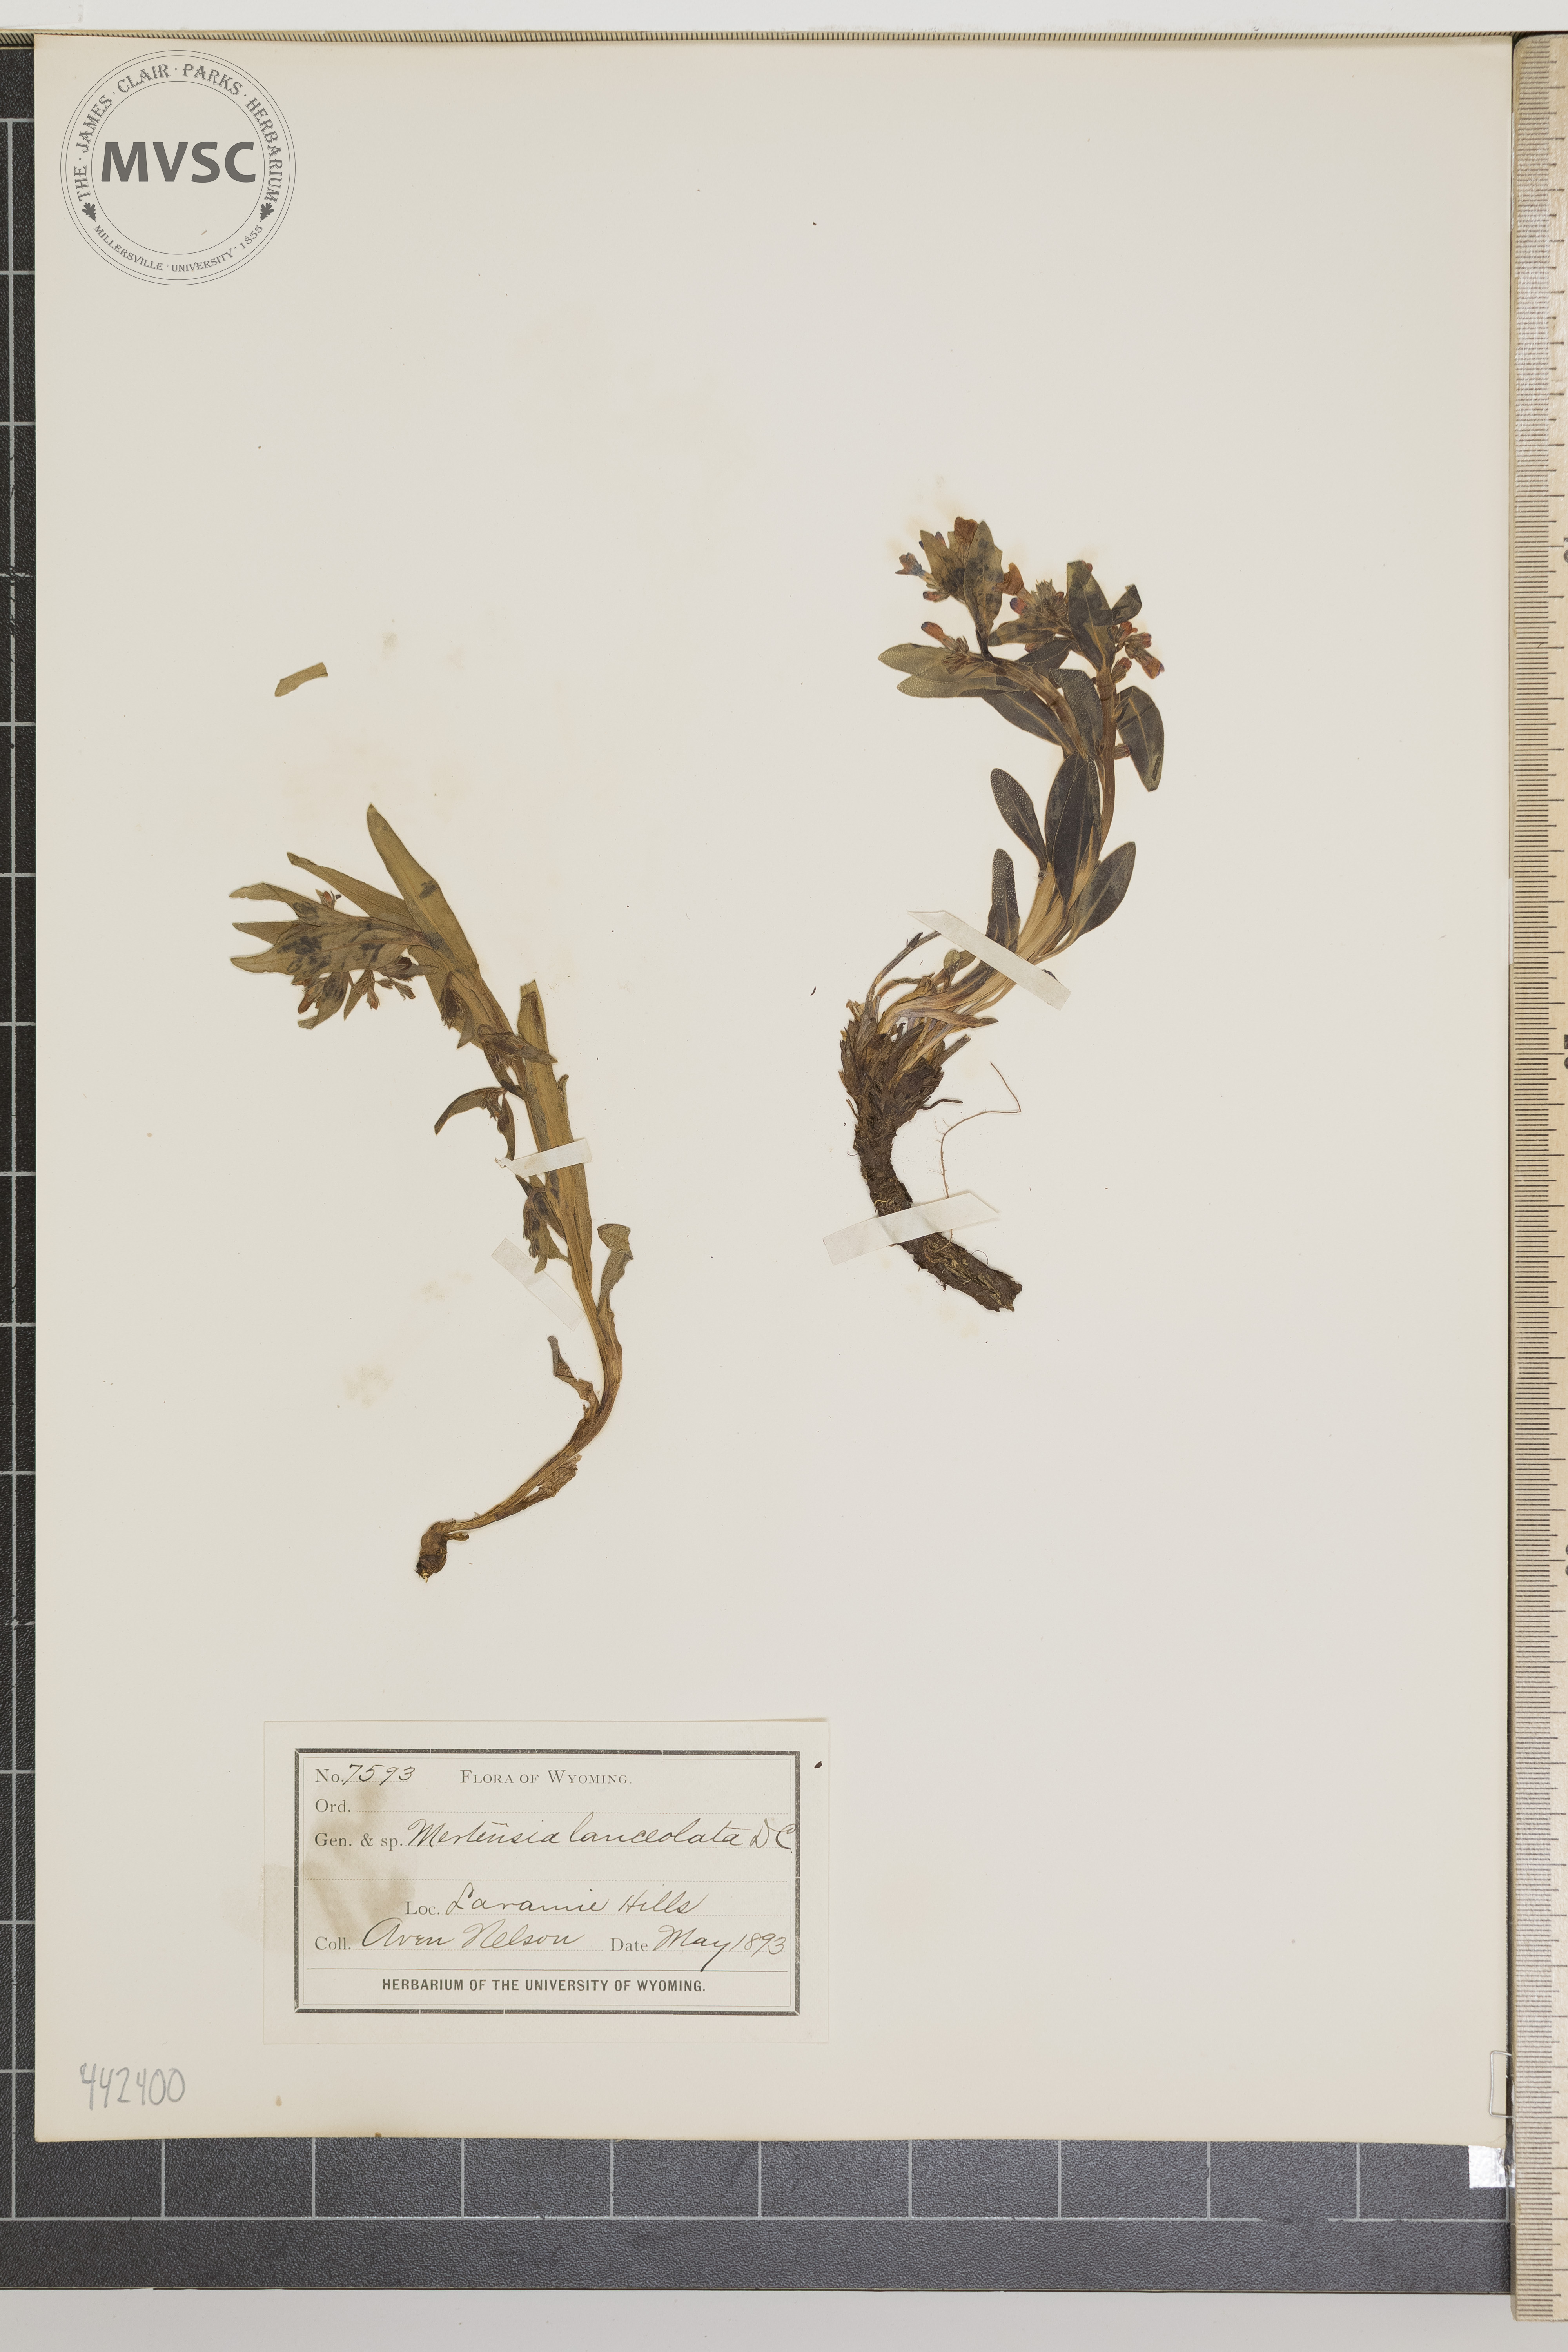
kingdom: Plantae
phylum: Tracheophyta
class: Magnoliopsida
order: Boraginales
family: Boraginaceae
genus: Mertensia
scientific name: Mertensia lanceolata
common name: Lance-leaved bluebells
